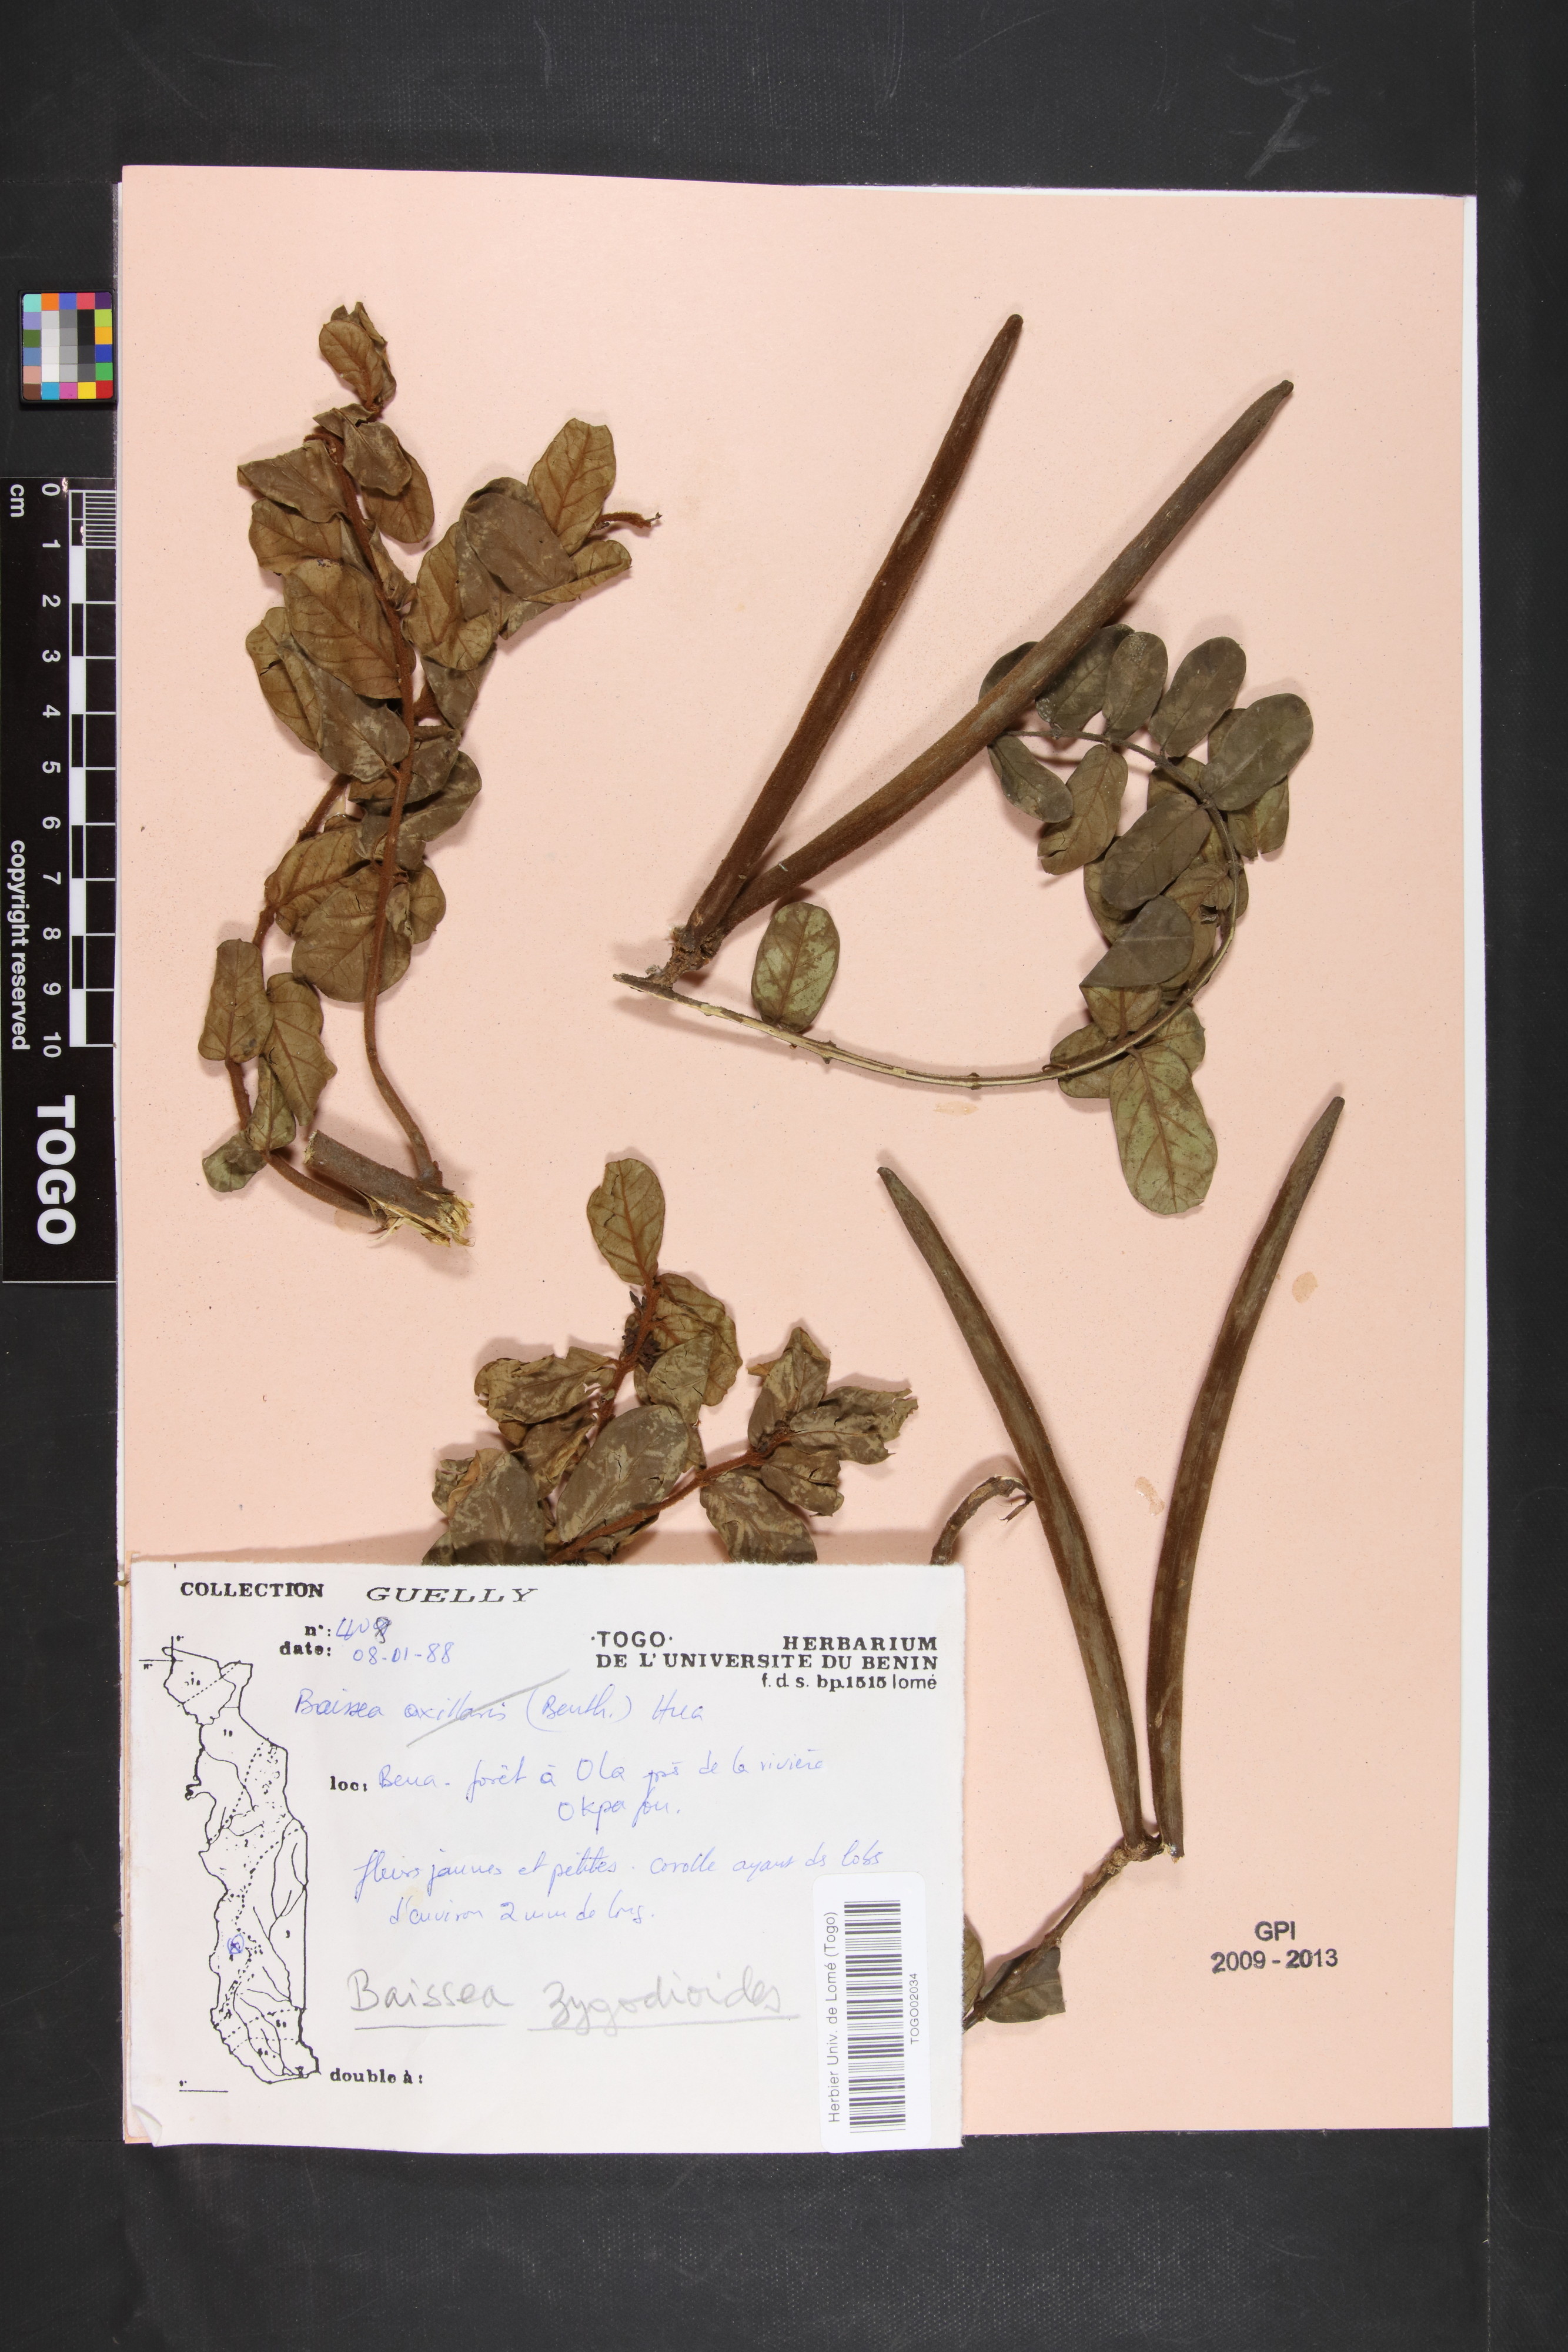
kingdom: Plantae
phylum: Tracheophyta
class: Magnoliopsida
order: Gentianales
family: Apocynaceae
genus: Baissea
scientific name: Baissea zygodioides
